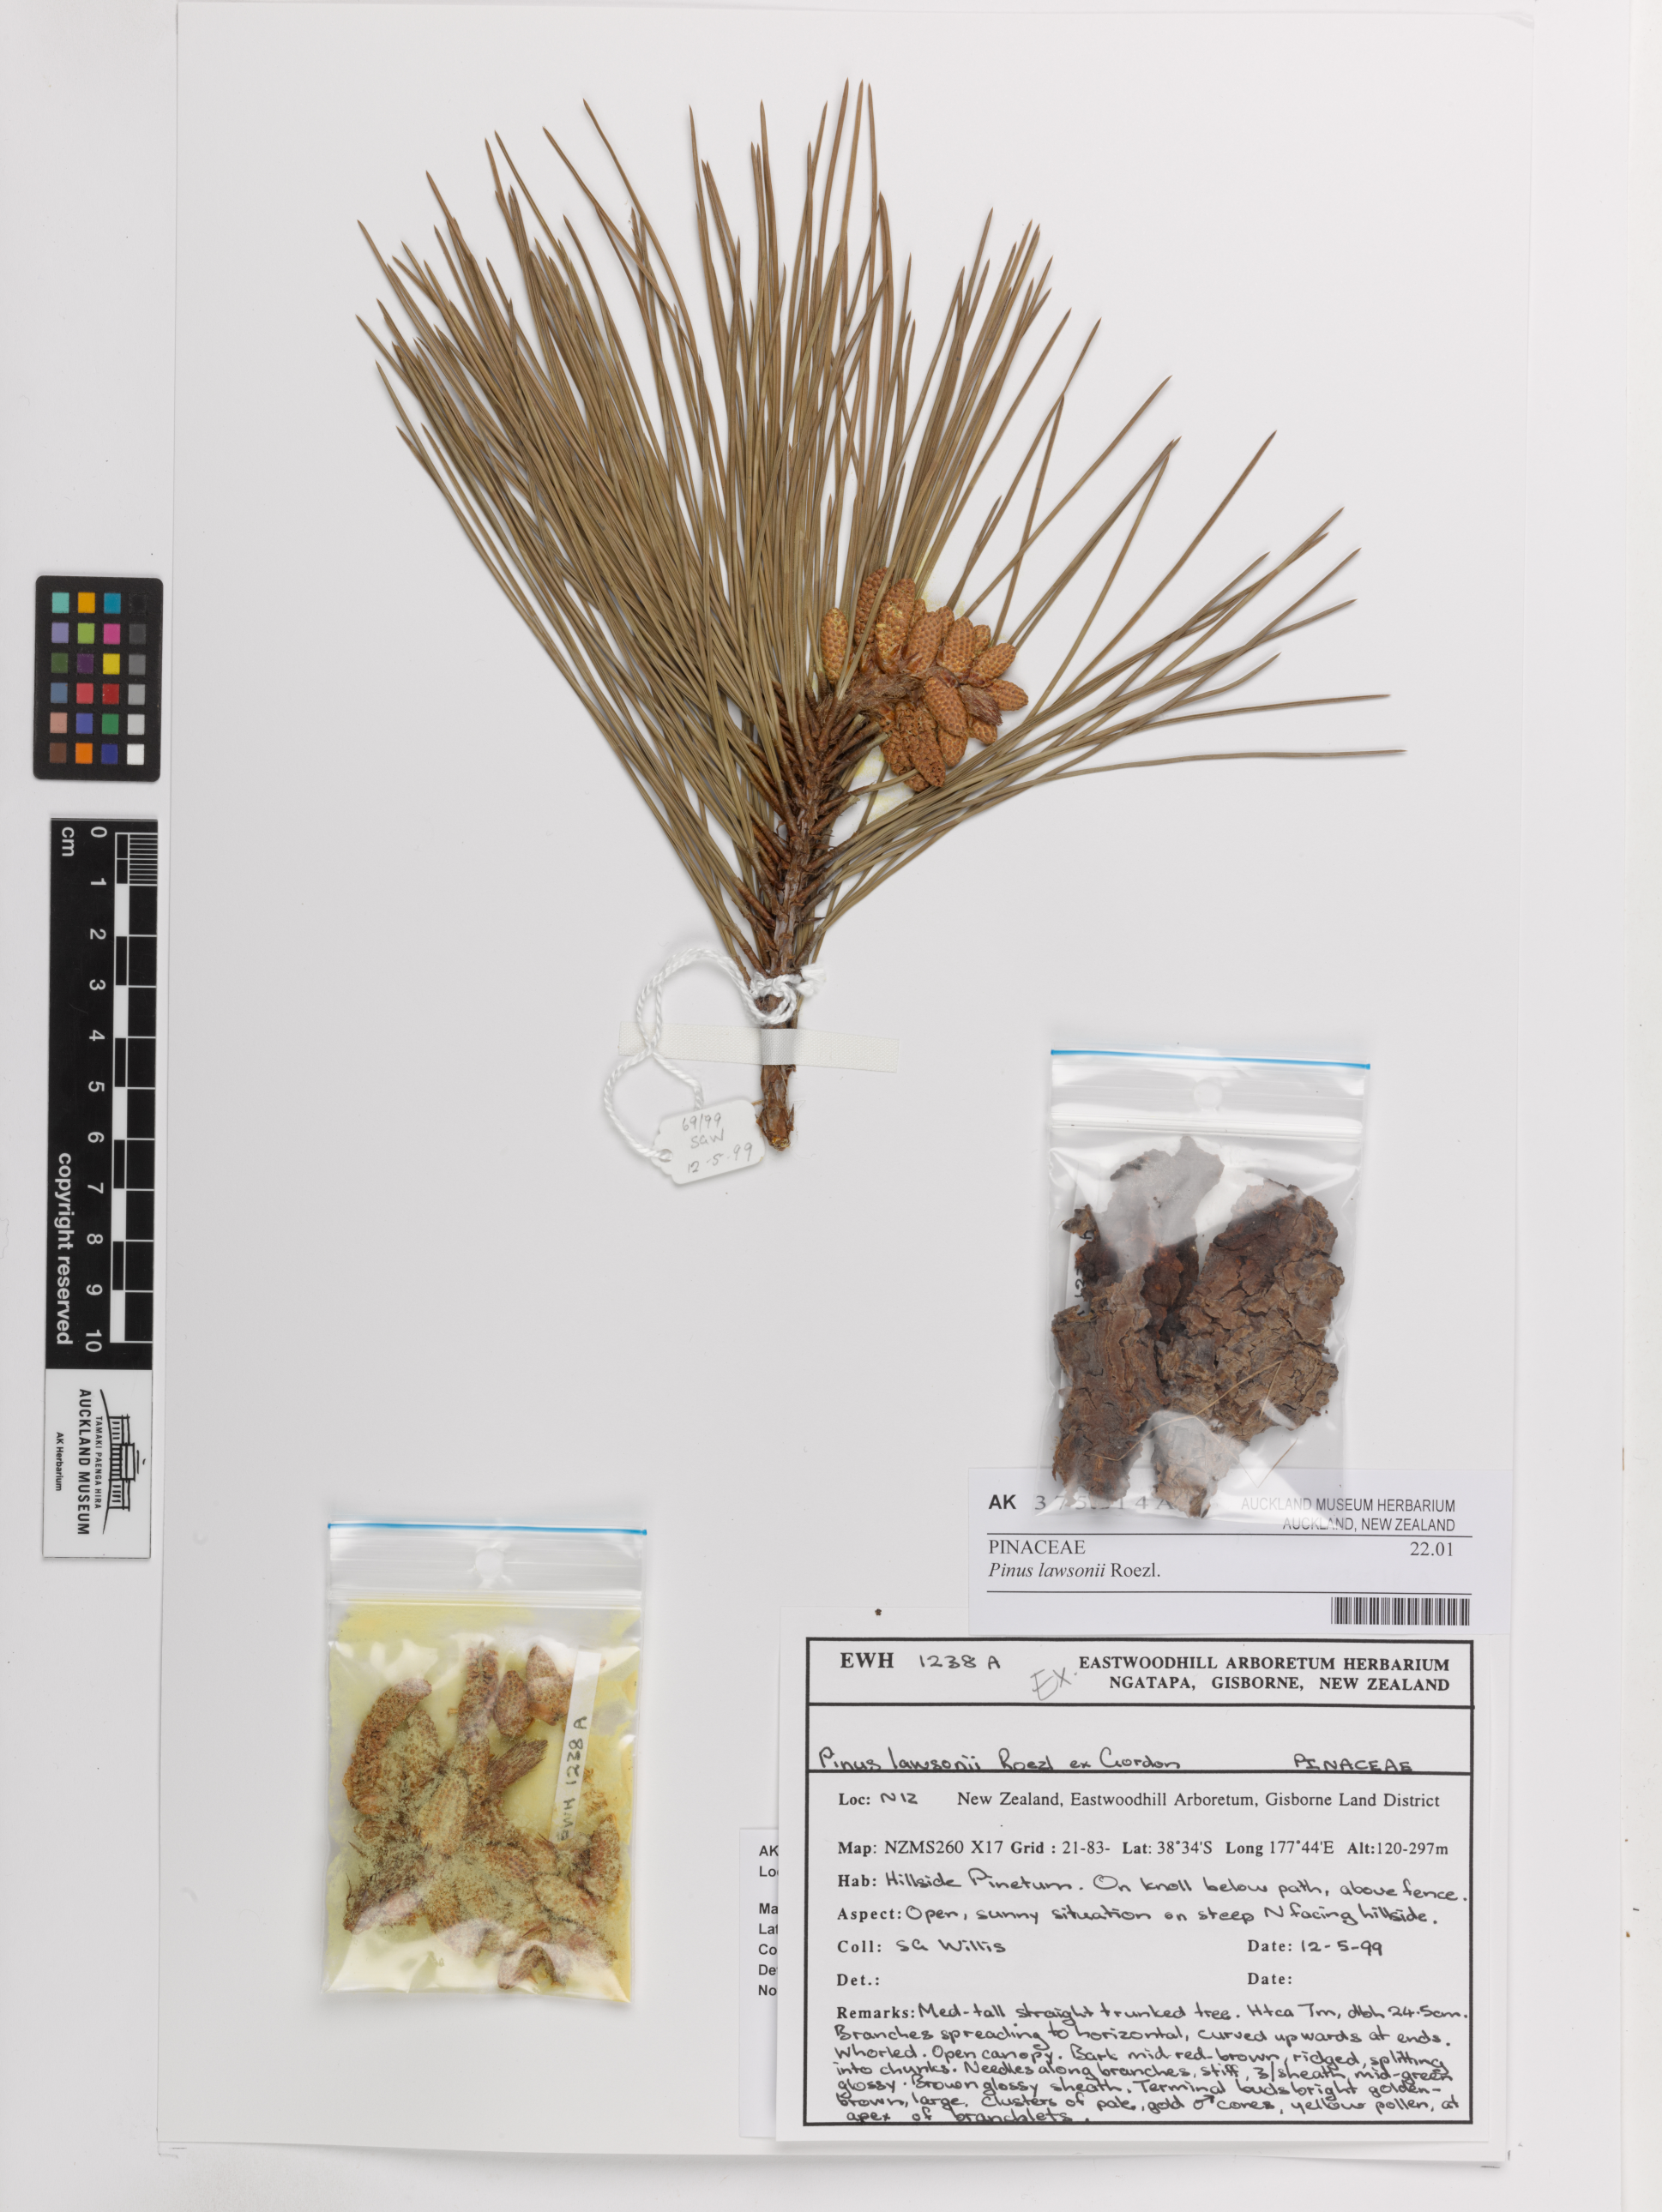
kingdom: Plantae
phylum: Tracheophyta
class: Pinopsida
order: Pinales
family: Pinaceae
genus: Pinus
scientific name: Pinus lawsonii
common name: Lawson's pine
